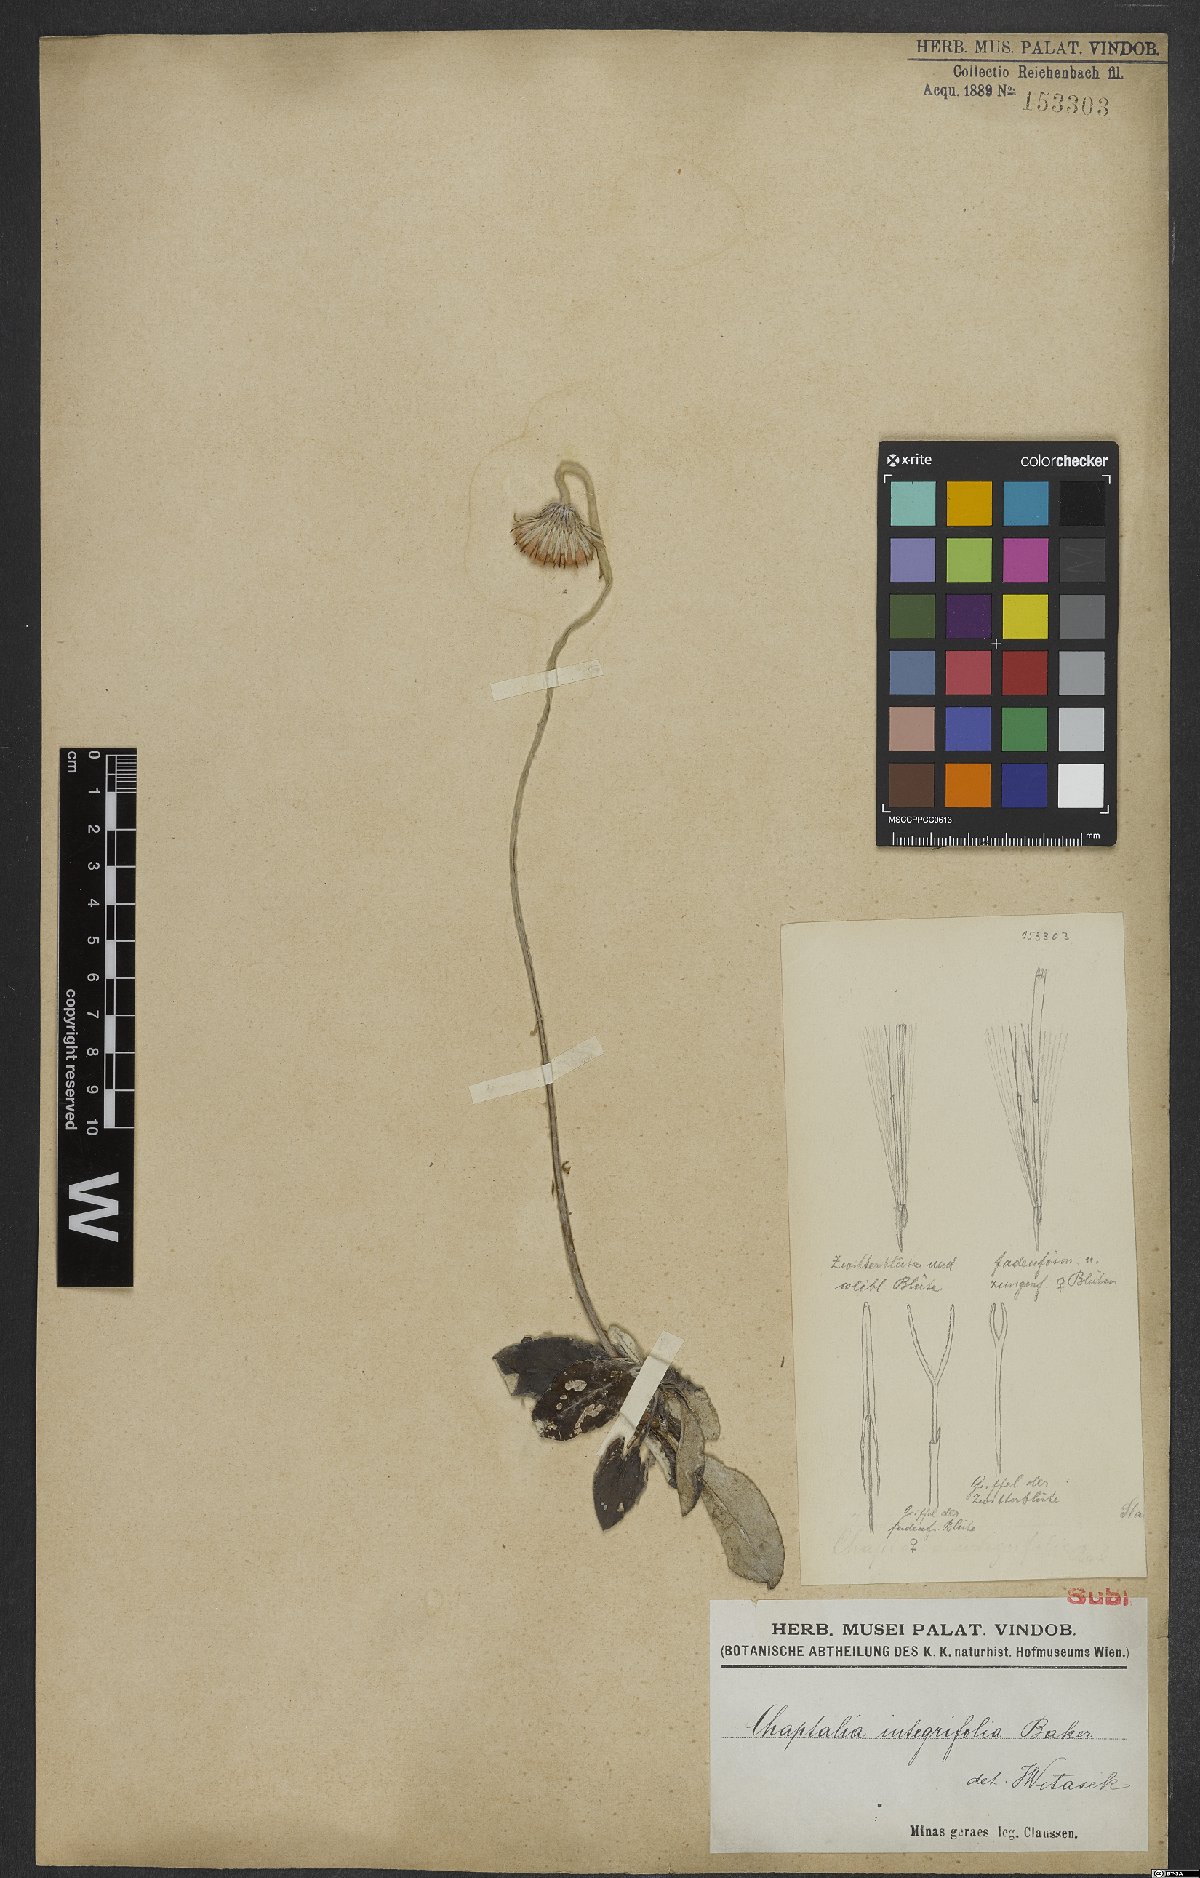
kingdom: Plantae
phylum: Tracheophyta
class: Magnoliopsida
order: Asterales
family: Asteraceae
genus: Chaptalia
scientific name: Chaptalia integerrima
